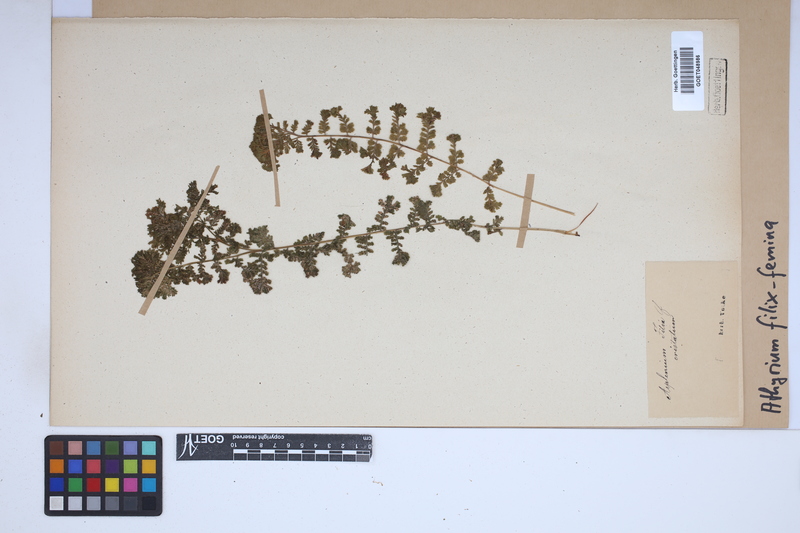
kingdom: Plantae
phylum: Tracheophyta
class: Polypodiopsida
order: Polypodiales
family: Athyriaceae
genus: Athyrium
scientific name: Athyrium filix-femina
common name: Lady fern
